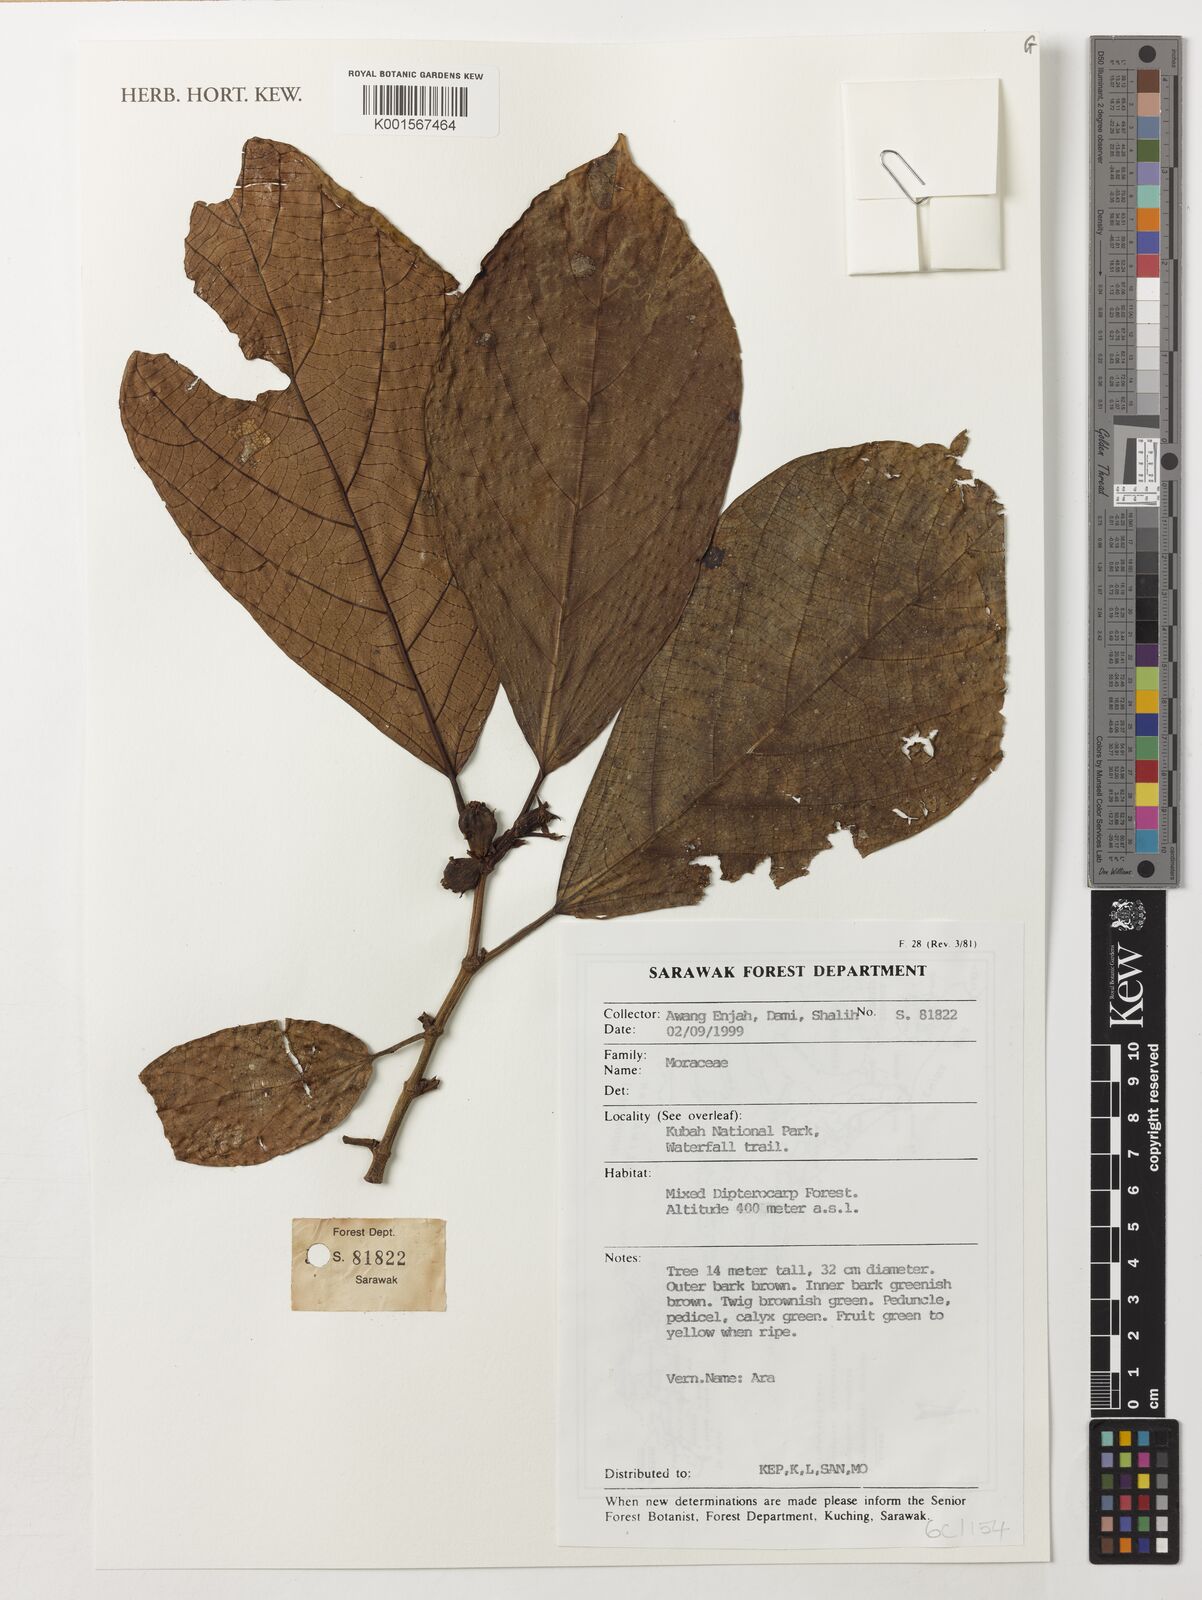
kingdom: Plantae
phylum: Tracheophyta
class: Magnoliopsida
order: Rosales
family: Moraceae
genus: Ficus
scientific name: Ficus
